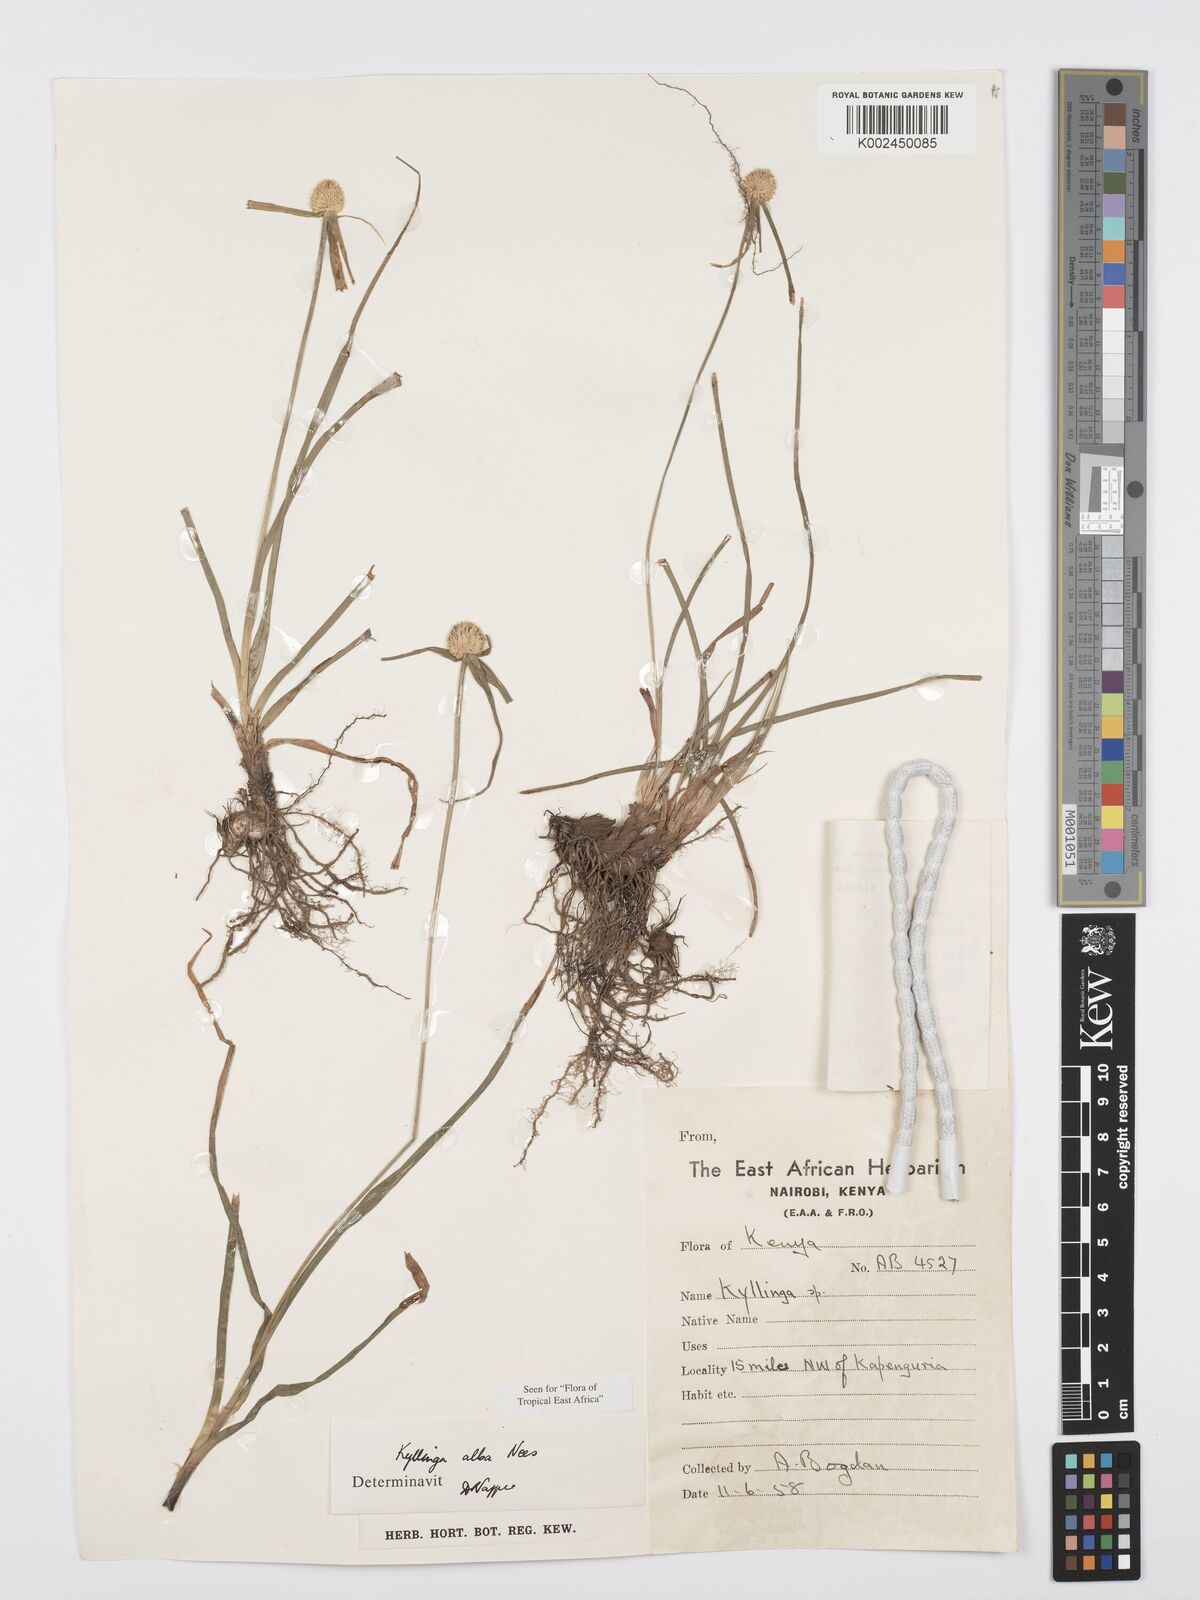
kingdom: Plantae
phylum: Tracheophyta
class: Liliopsida
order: Poales
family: Cyperaceae
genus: Cyperus
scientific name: Cyperus
